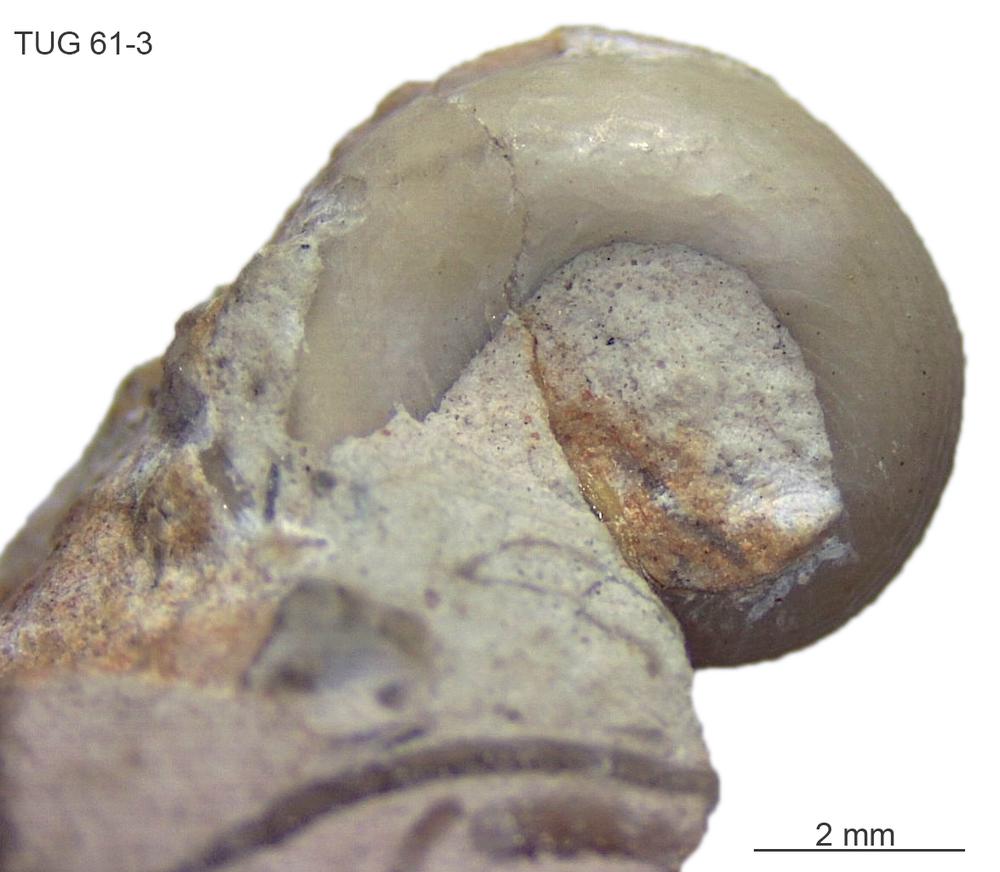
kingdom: Animalia
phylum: Mollusca
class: Gastropoda
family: Bucaniidae
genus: Bucania
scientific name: Bucania Bellerophon czekanowskii
